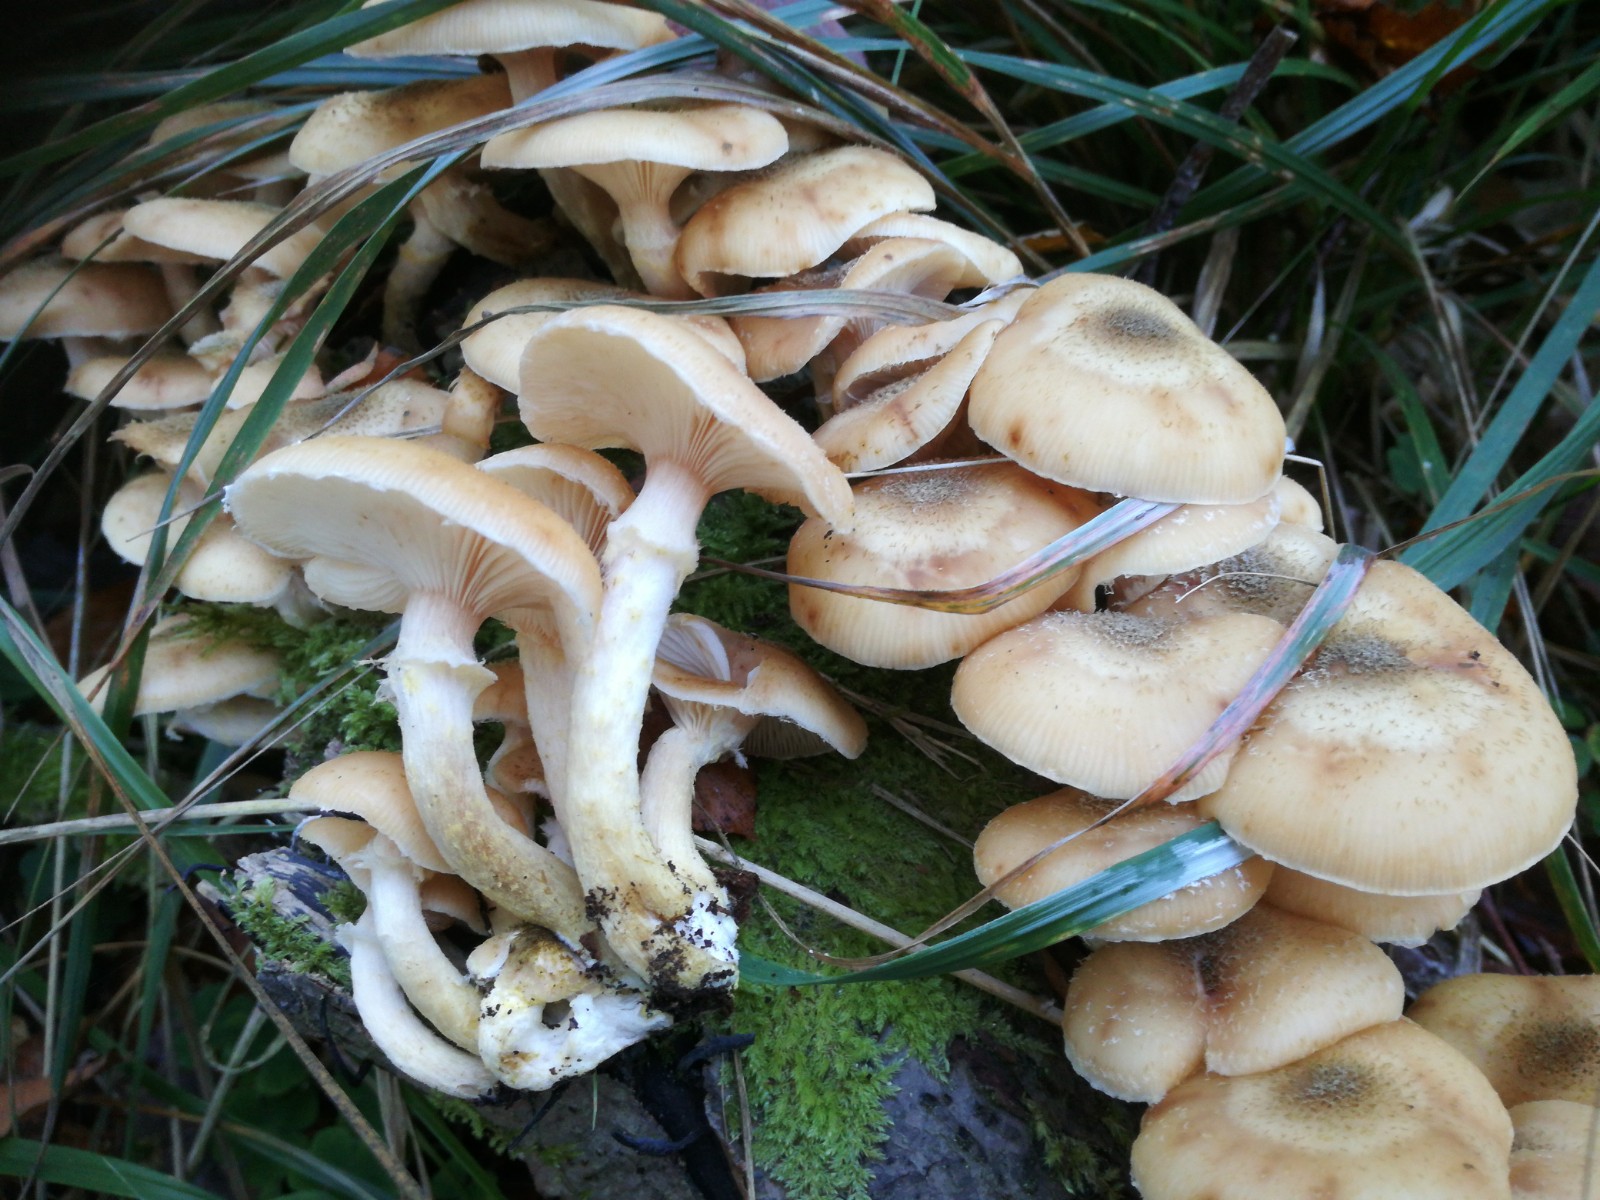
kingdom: Fungi
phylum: Basidiomycota
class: Agaricomycetes
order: Agaricales
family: Physalacriaceae
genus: Armillaria
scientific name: Armillaria
